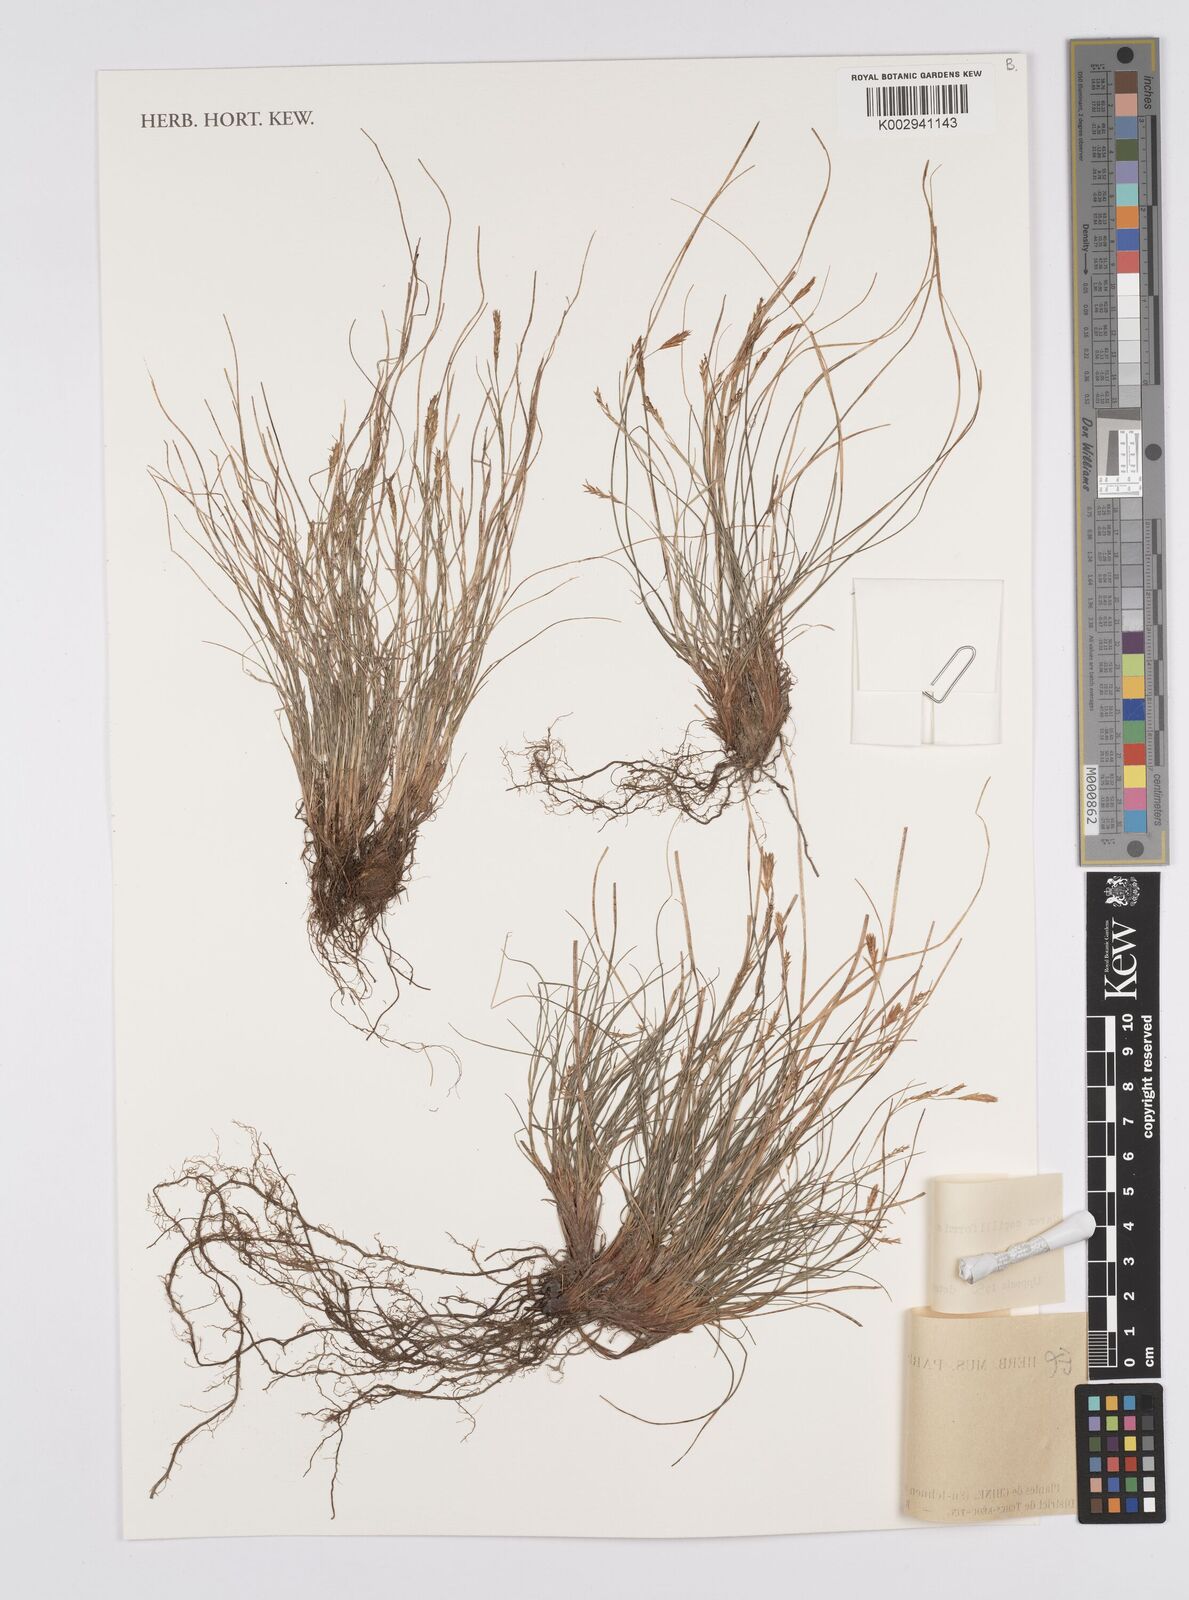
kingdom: Plantae
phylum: Tracheophyta
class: Liliopsida
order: Poales
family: Cyperaceae
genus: Carex
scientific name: Carex capilliformis
